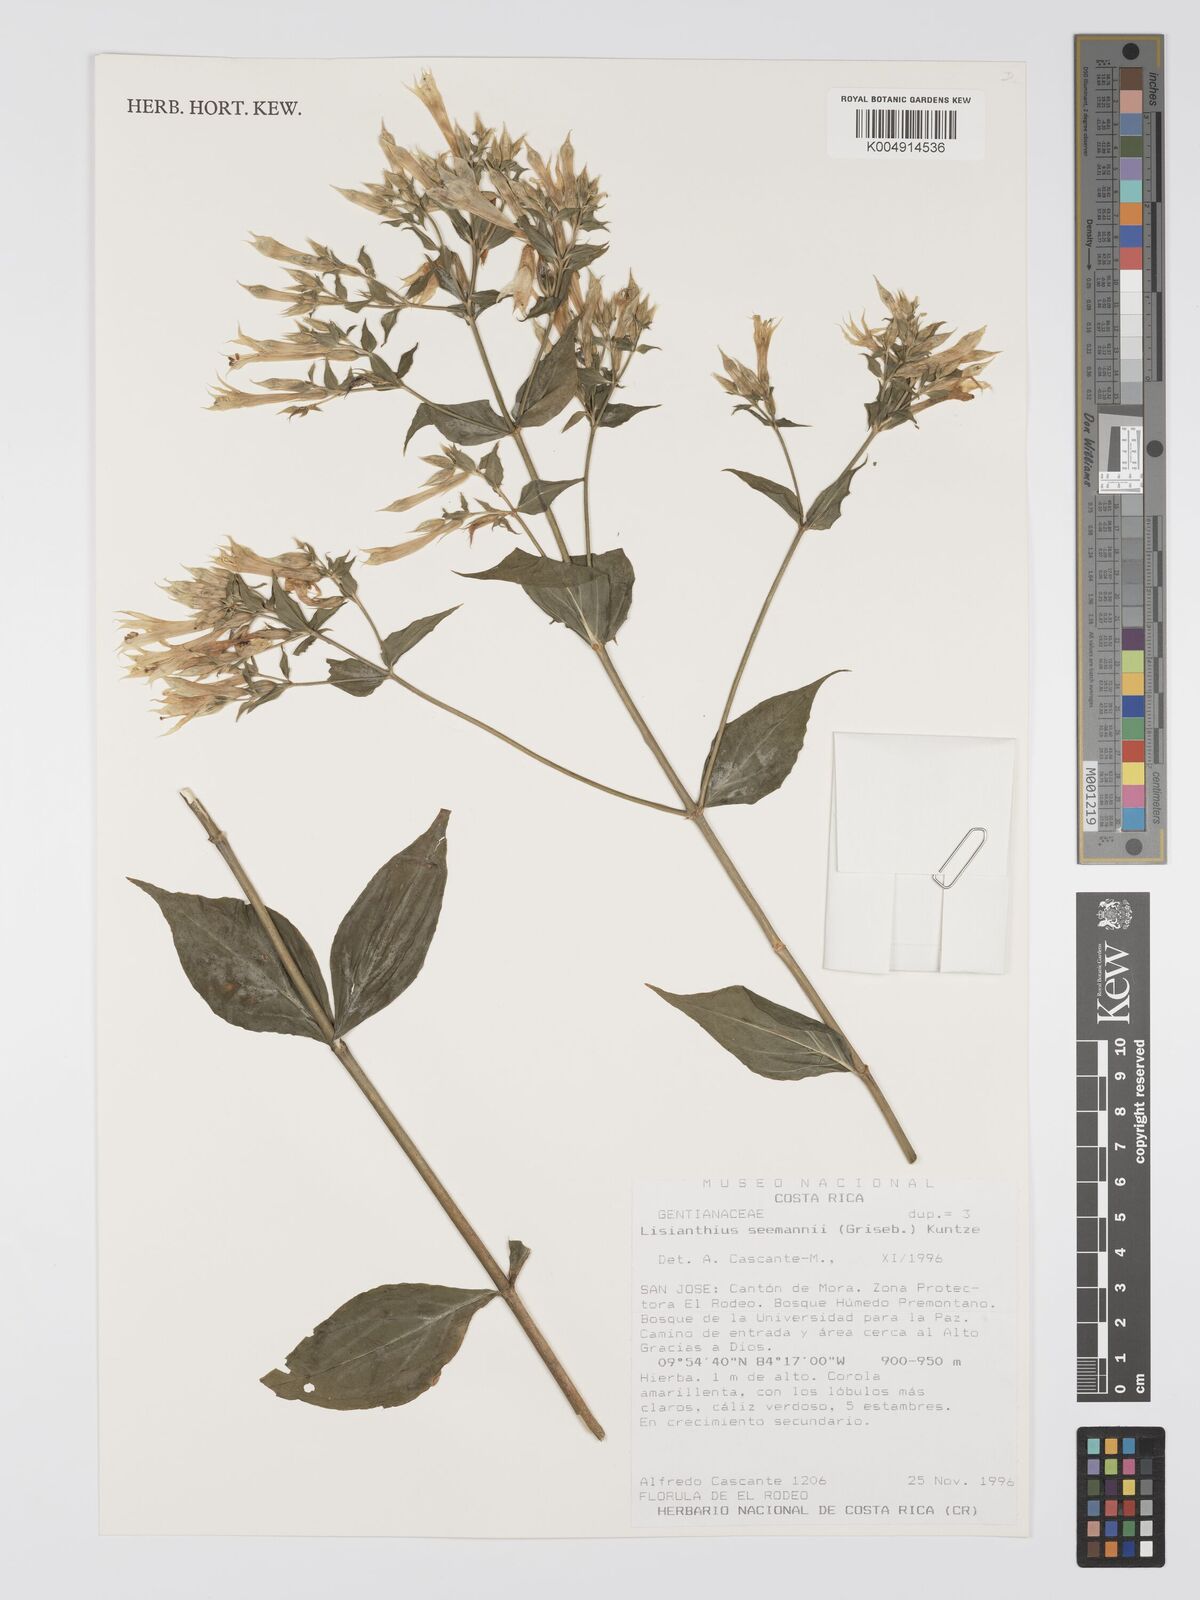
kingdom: Plantae
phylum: Tracheophyta
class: Magnoliopsida
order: Gentianales
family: Gentianaceae
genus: Lisianthus
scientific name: Lisianthus seemannii
